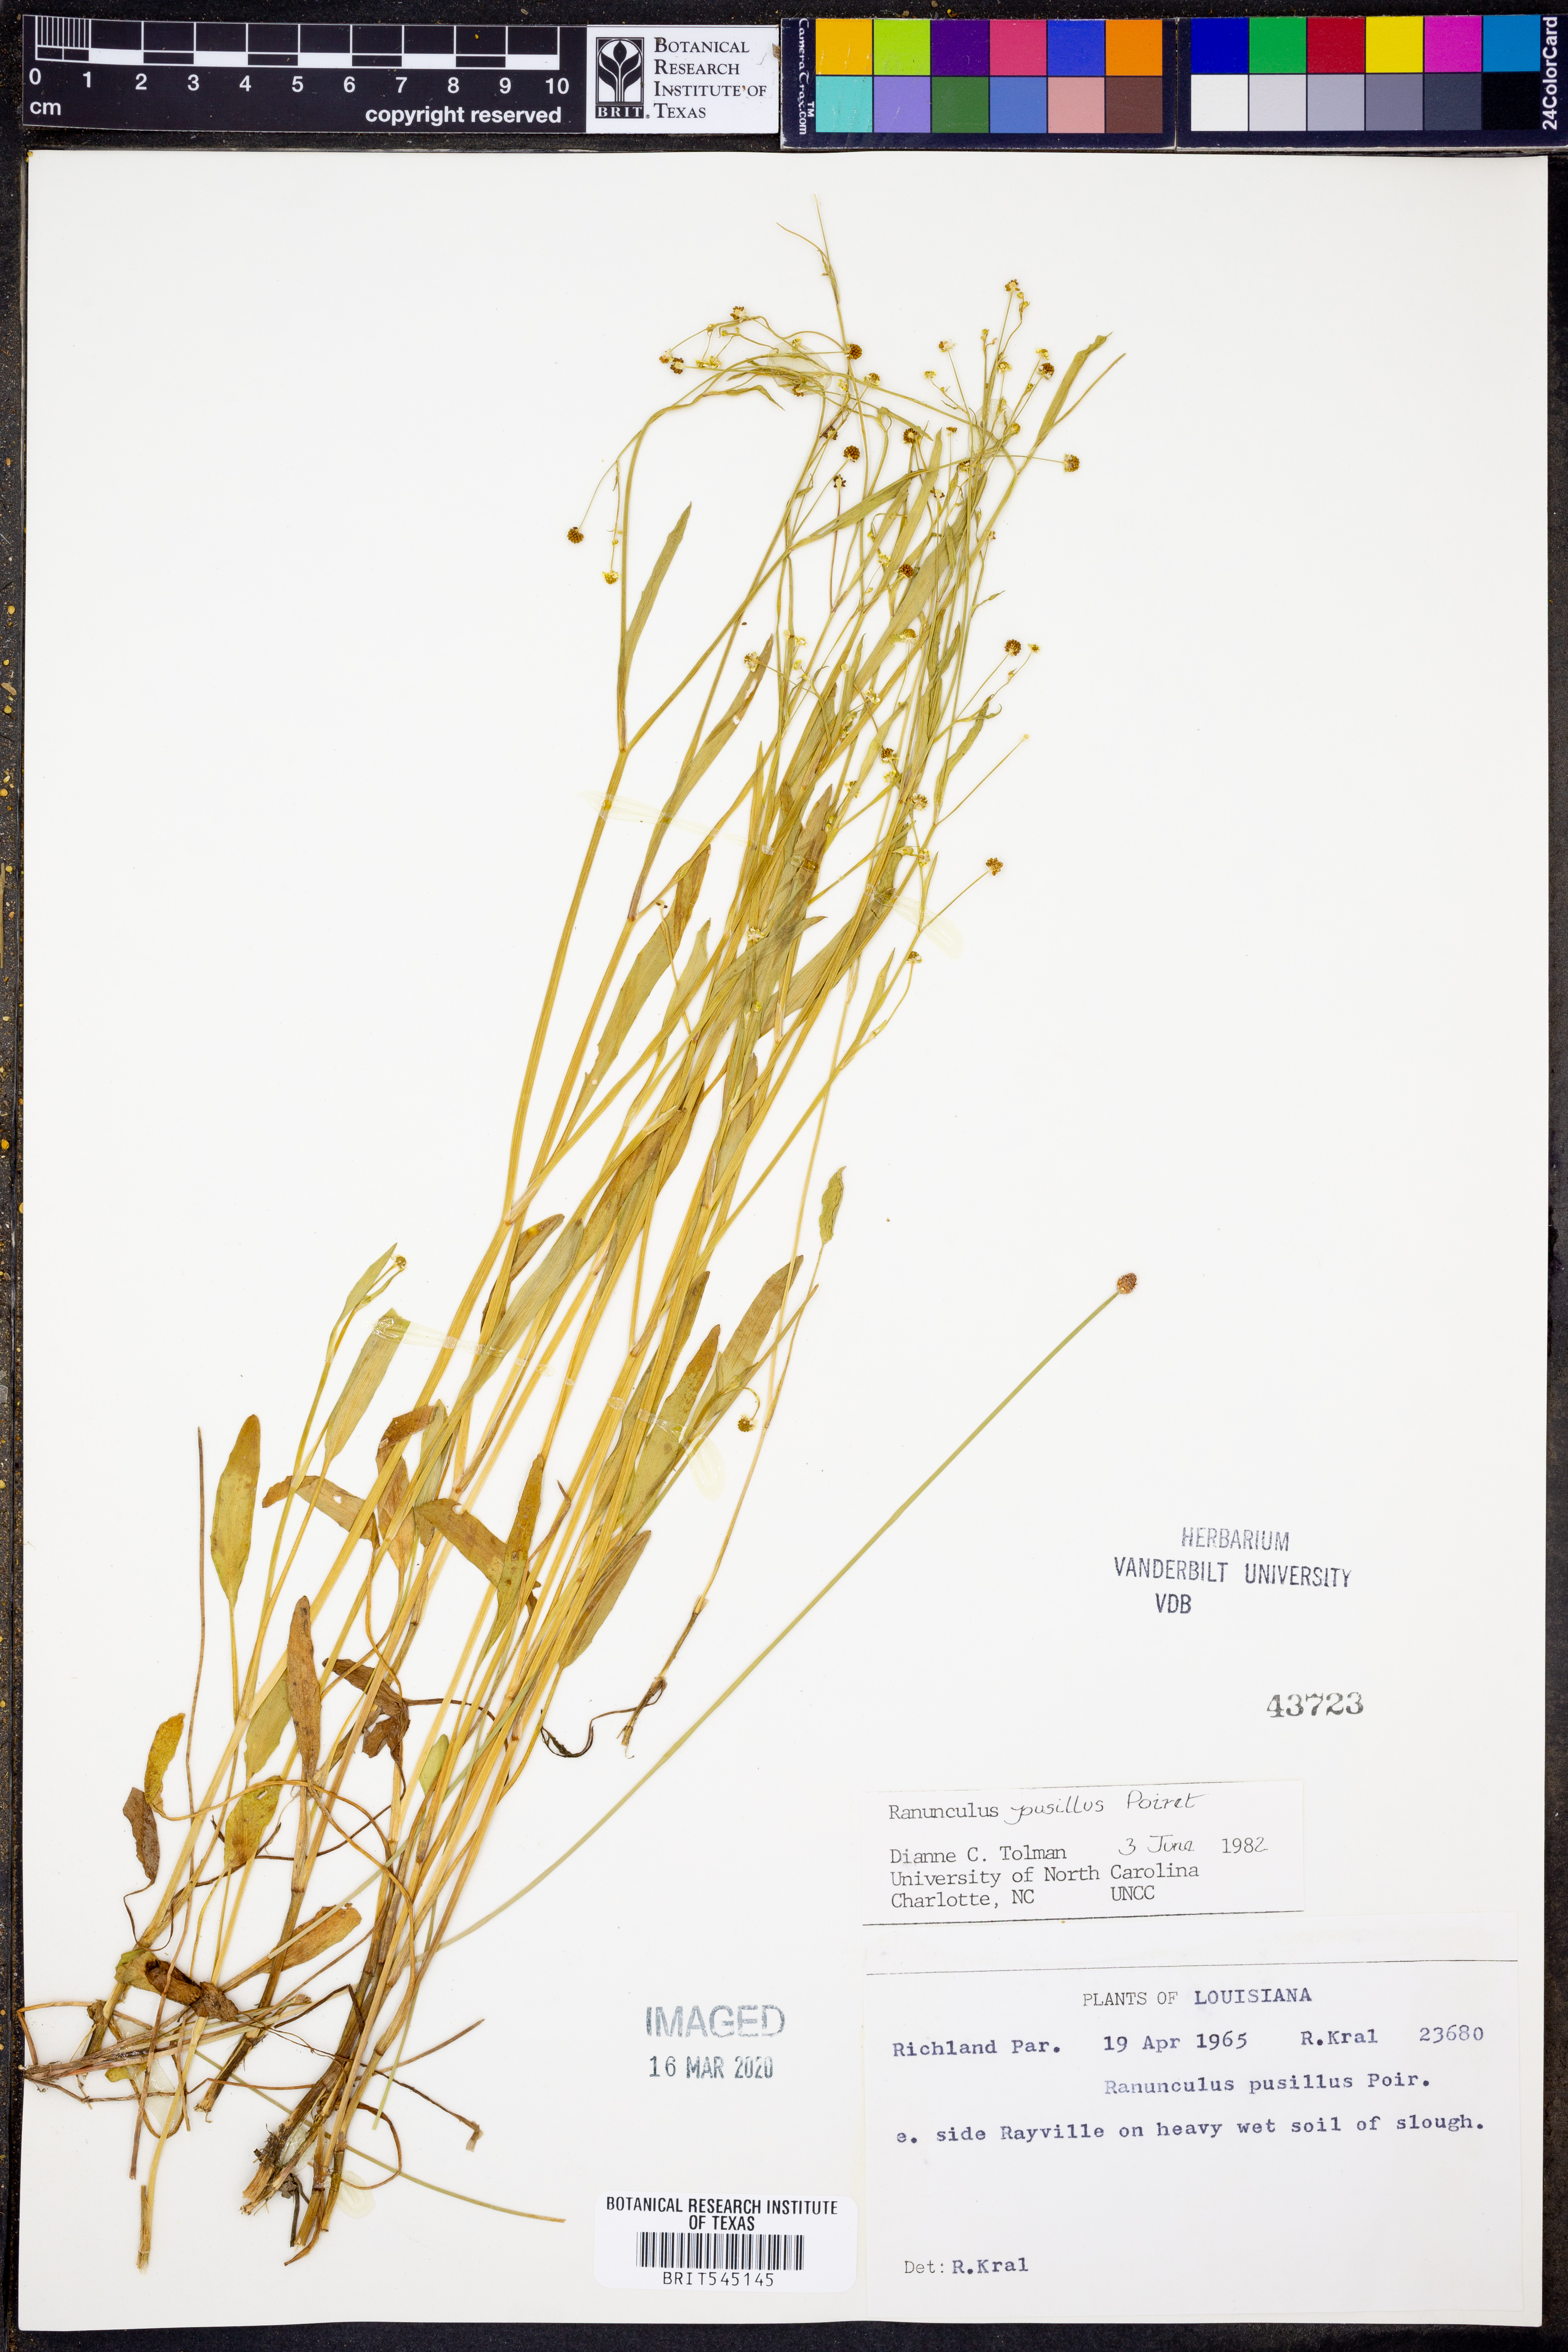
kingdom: Plantae
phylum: Tracheophyta
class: Magnoliopsida
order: Ranunculales
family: Ranunculaceae
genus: Ranunculus
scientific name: Ranunculus pusillus
